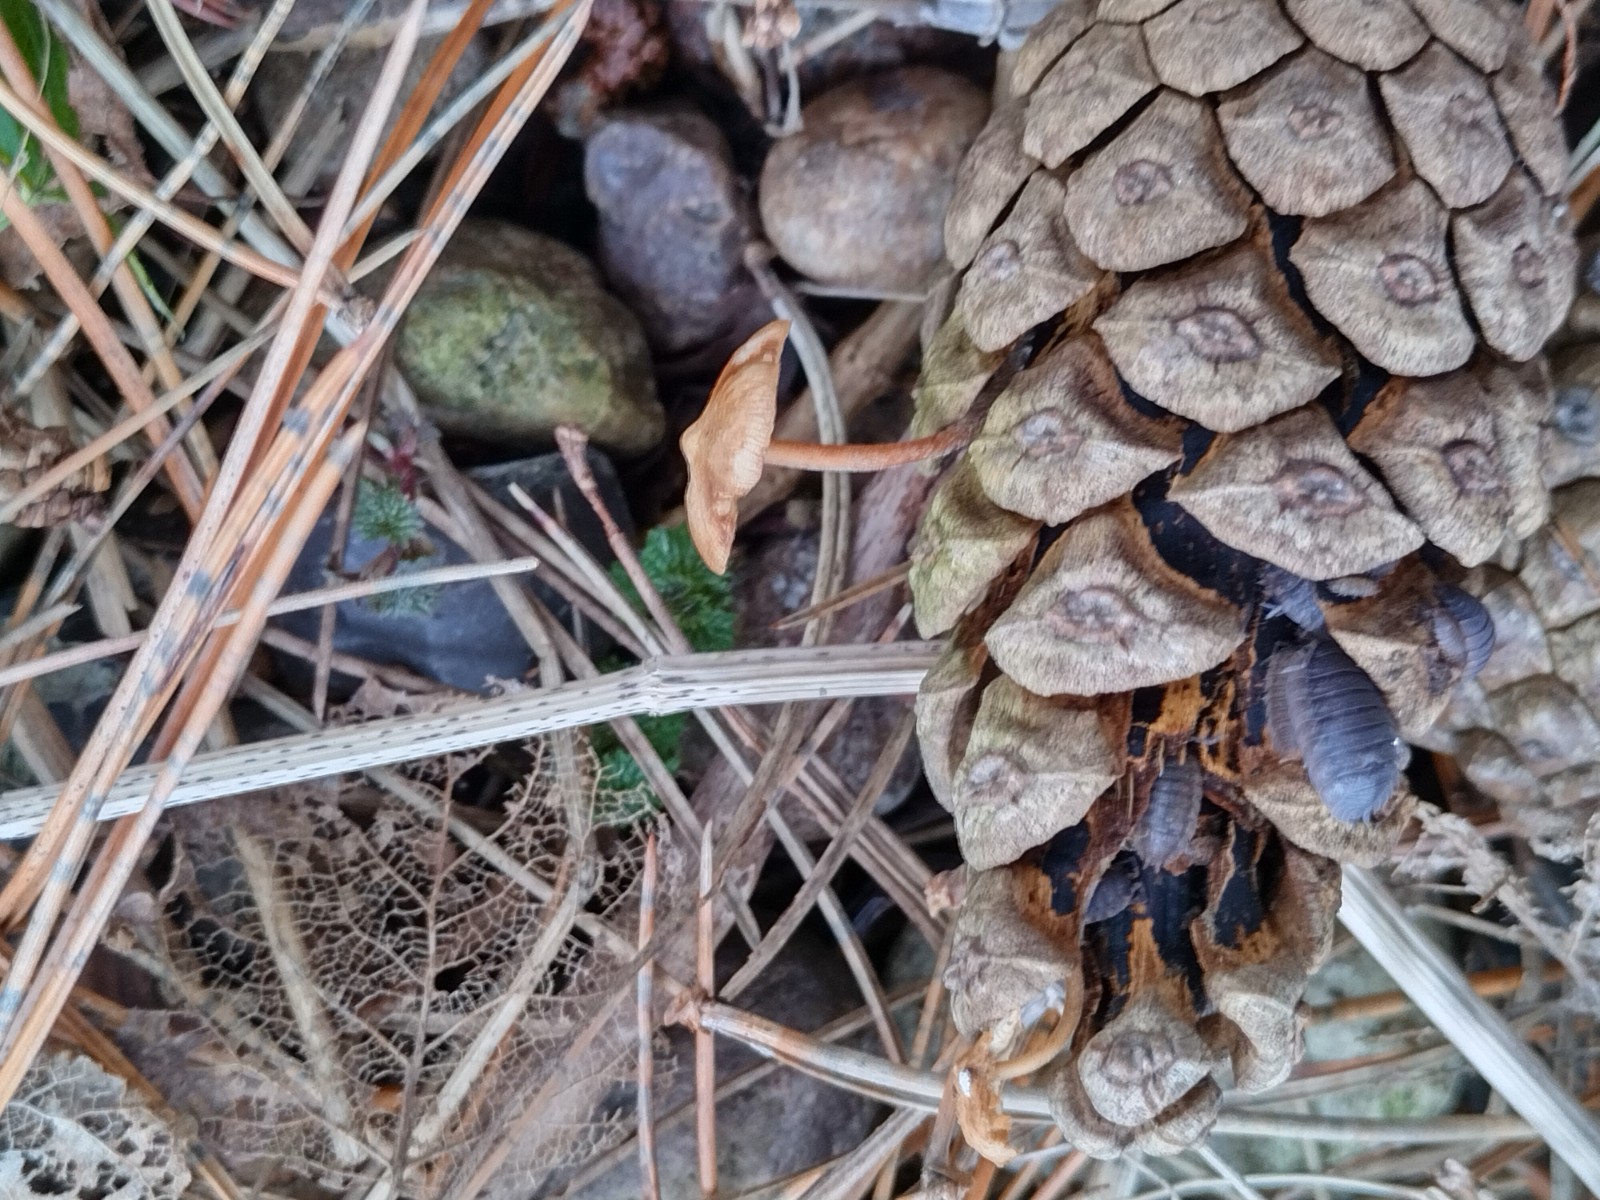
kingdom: Fungi
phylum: Basidiomycota
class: Agaricomycetes
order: Agaricales
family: Marasmiaceae
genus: Baeospora
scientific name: Baeospora myosura
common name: koglebruskhat
